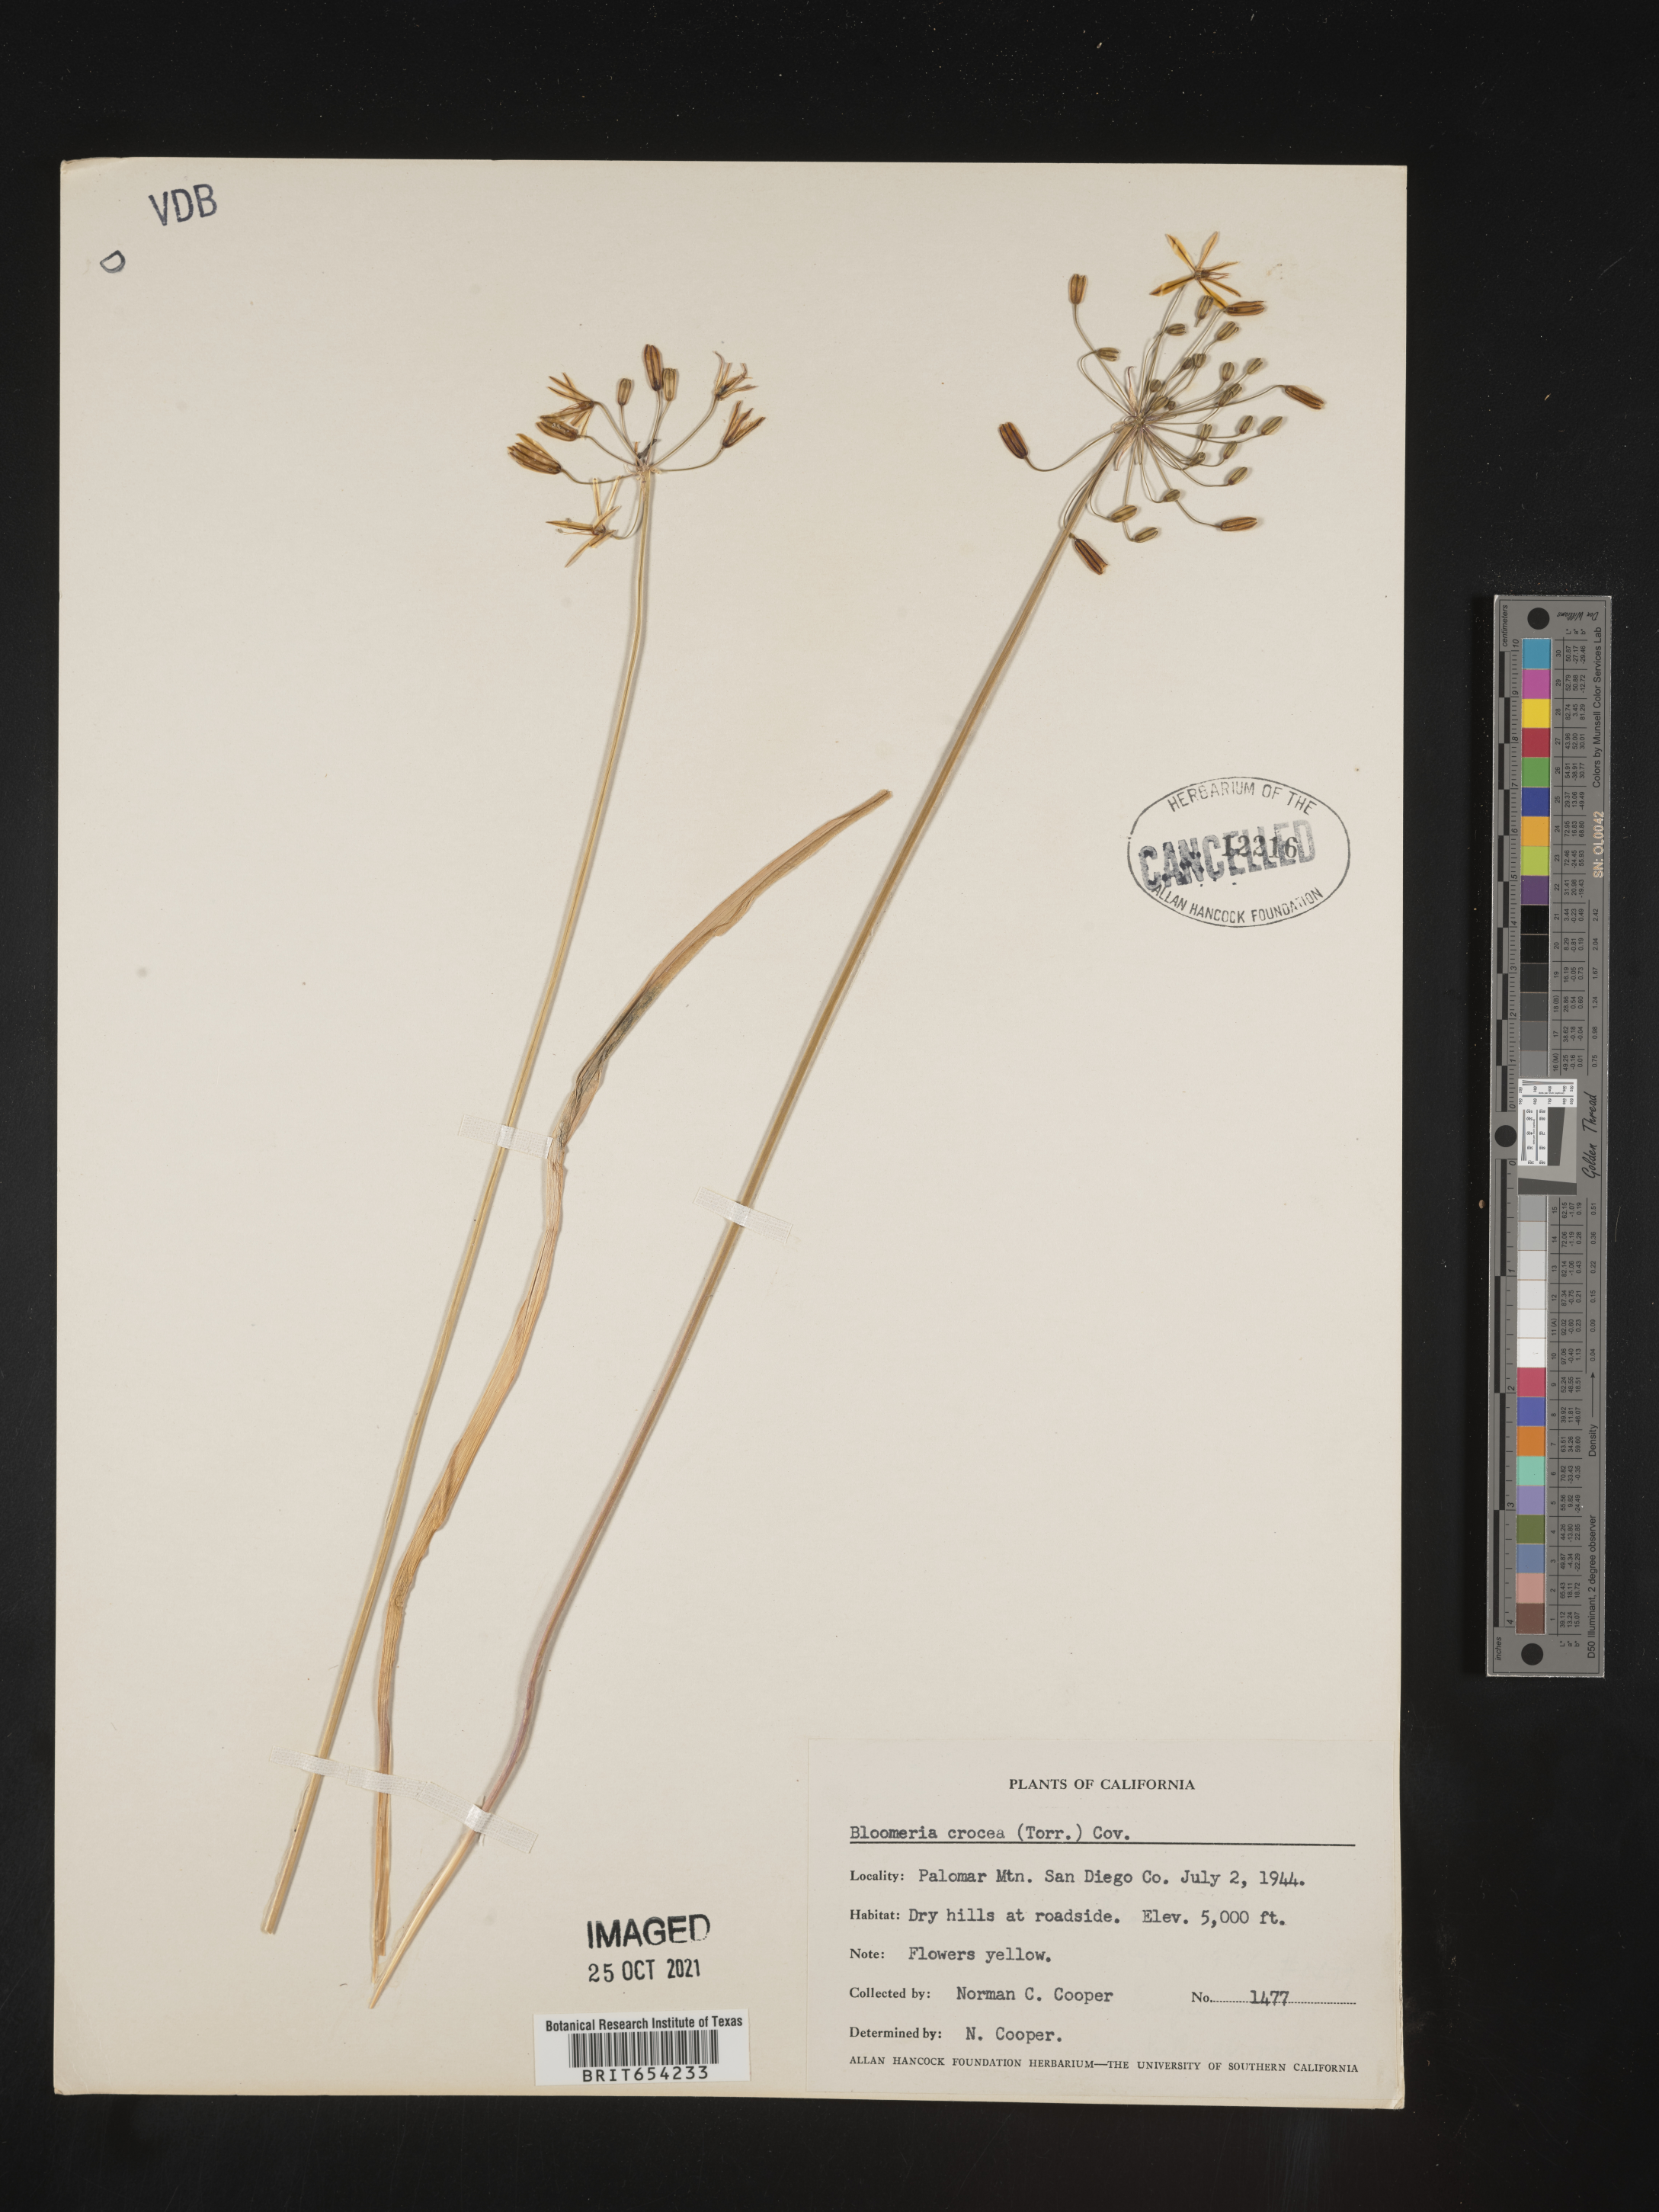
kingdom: Plantae
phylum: Tracheophyta
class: Liliopsida
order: Asparagales
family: Asparagaceae
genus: Bloomeria
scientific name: Bloomeria crocea
